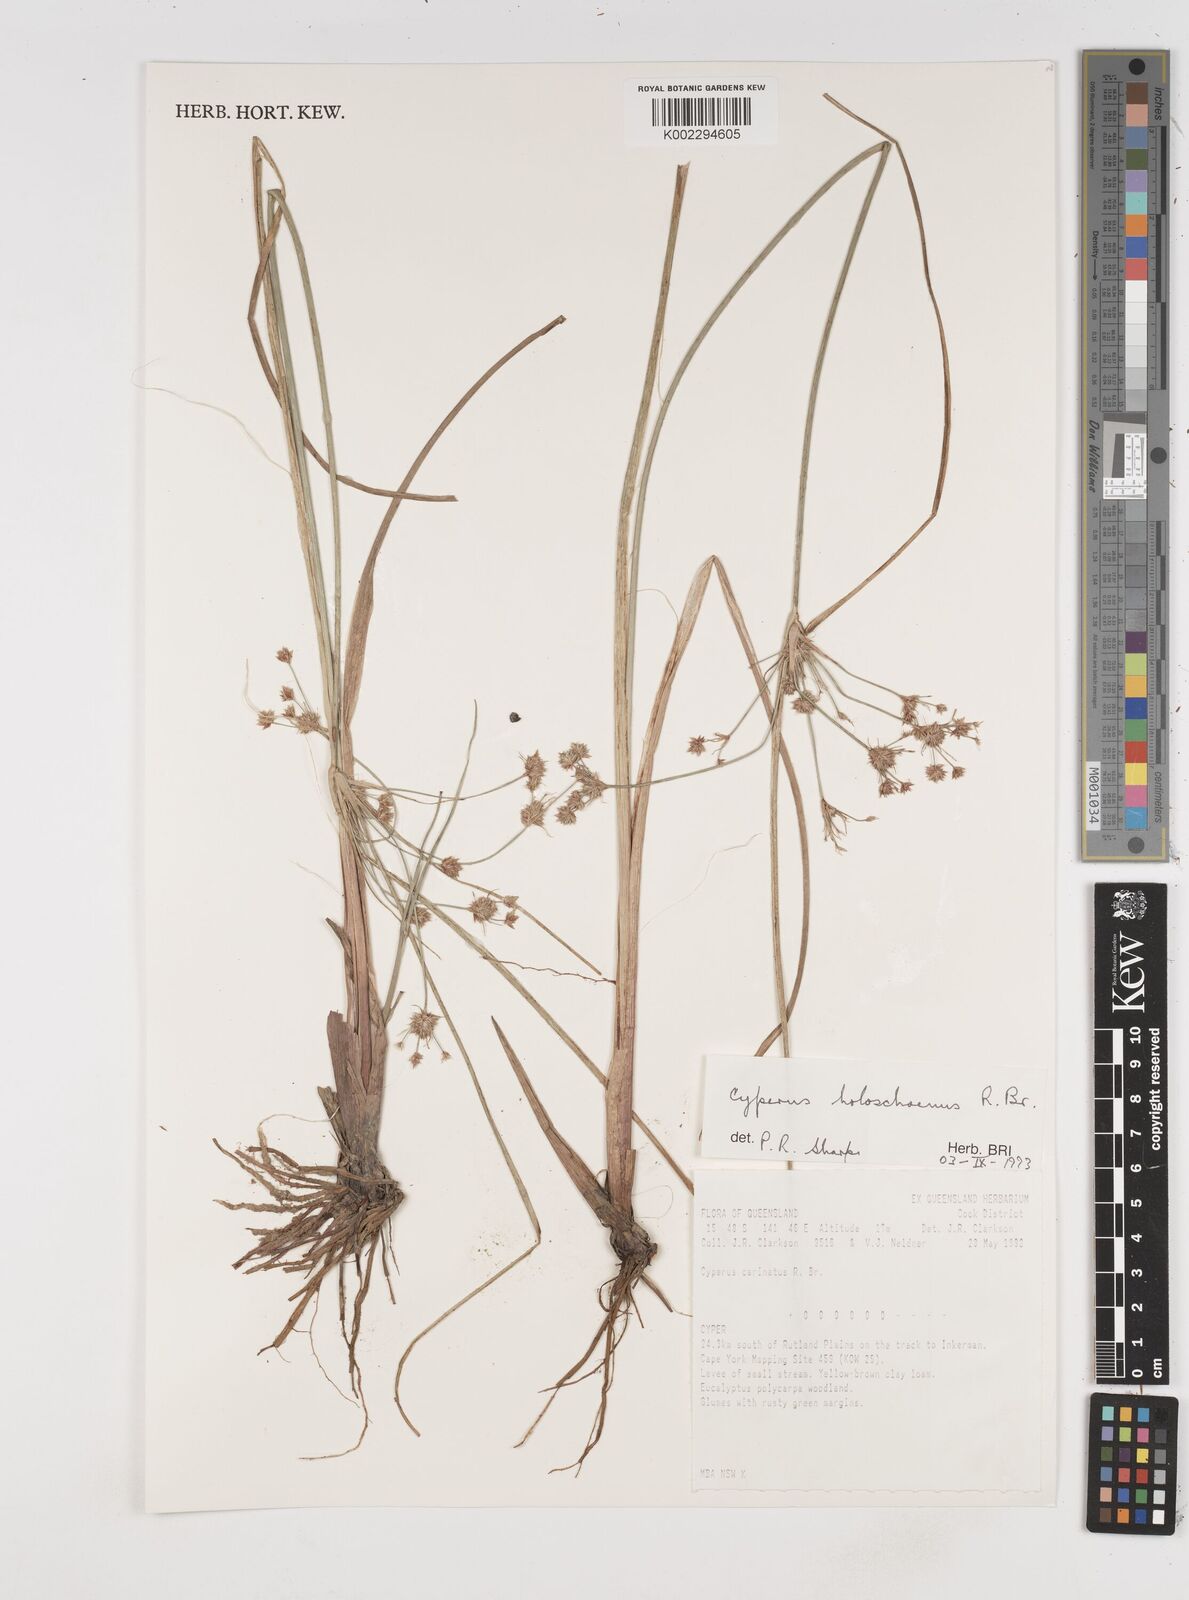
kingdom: Plantae
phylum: Tracheophyta
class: Liliopsida
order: Poales
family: Cyperaceae
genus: Cyperus
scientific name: Cyperus holoschoenus
